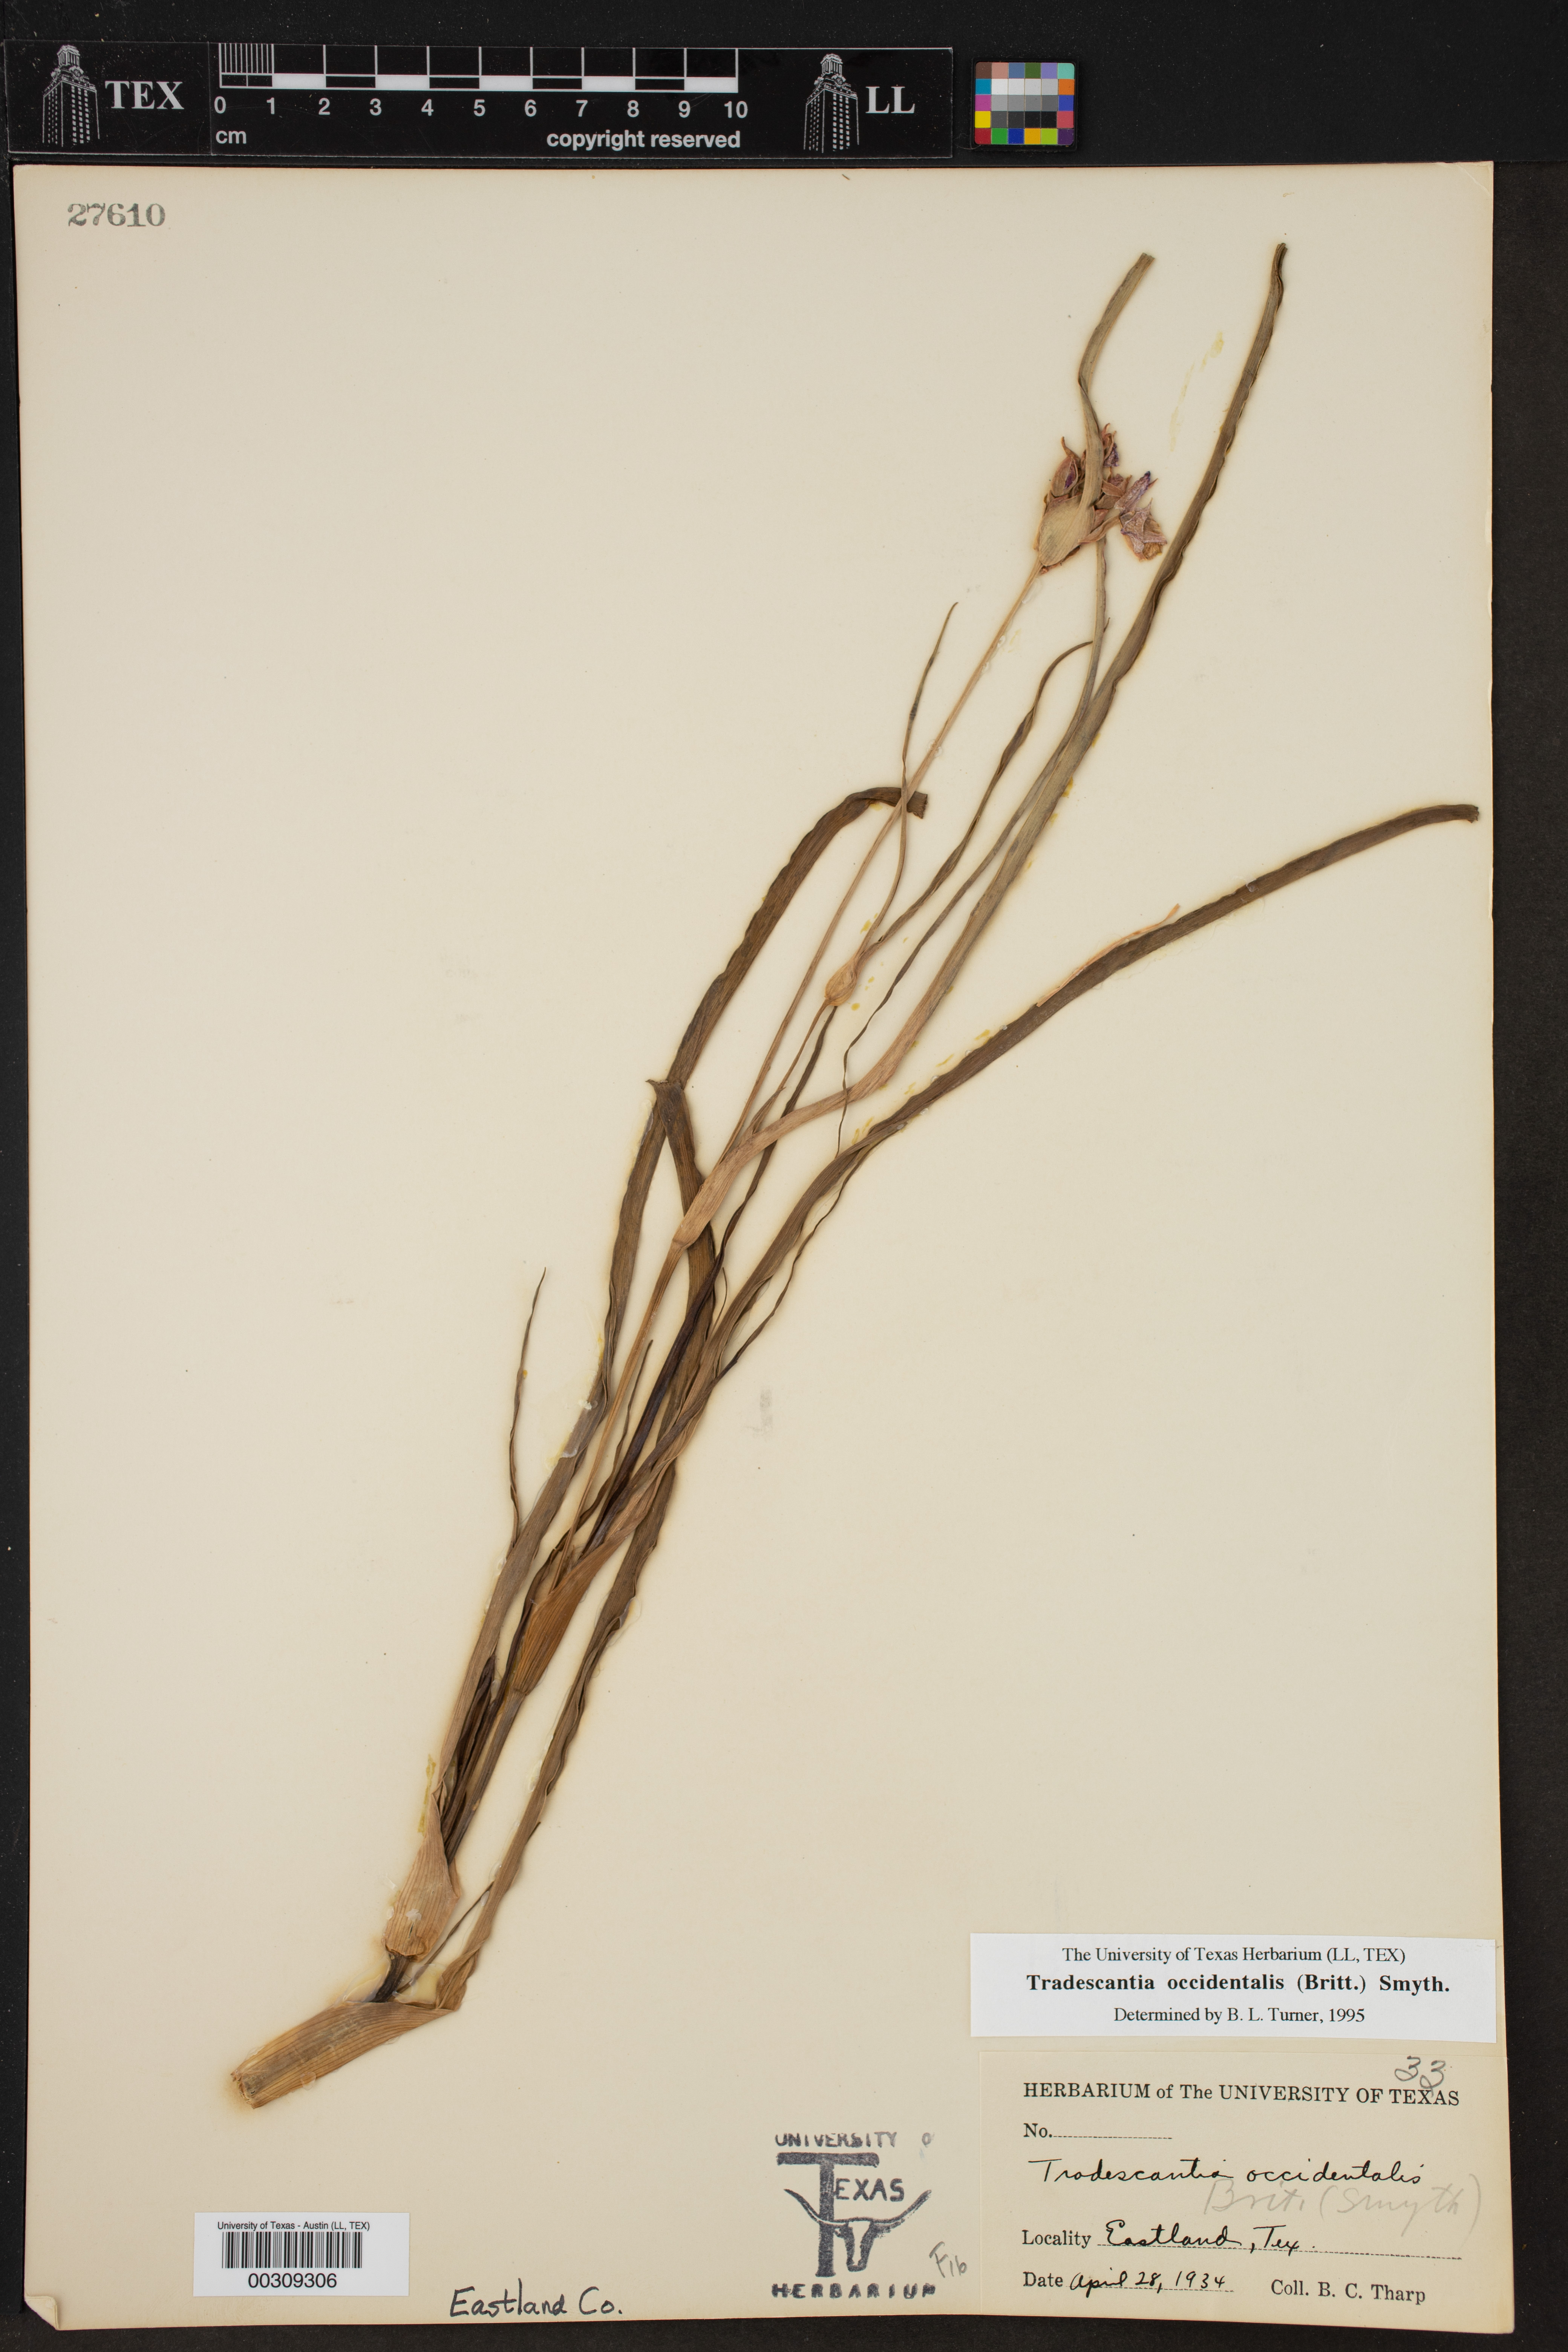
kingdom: Plantae
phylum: Tracheophyta
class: Liliopsida
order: Commelinales
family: Commelinaceae
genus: Tradescantia
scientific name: Tradescantia occidentalis
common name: Prairie spiderwort
